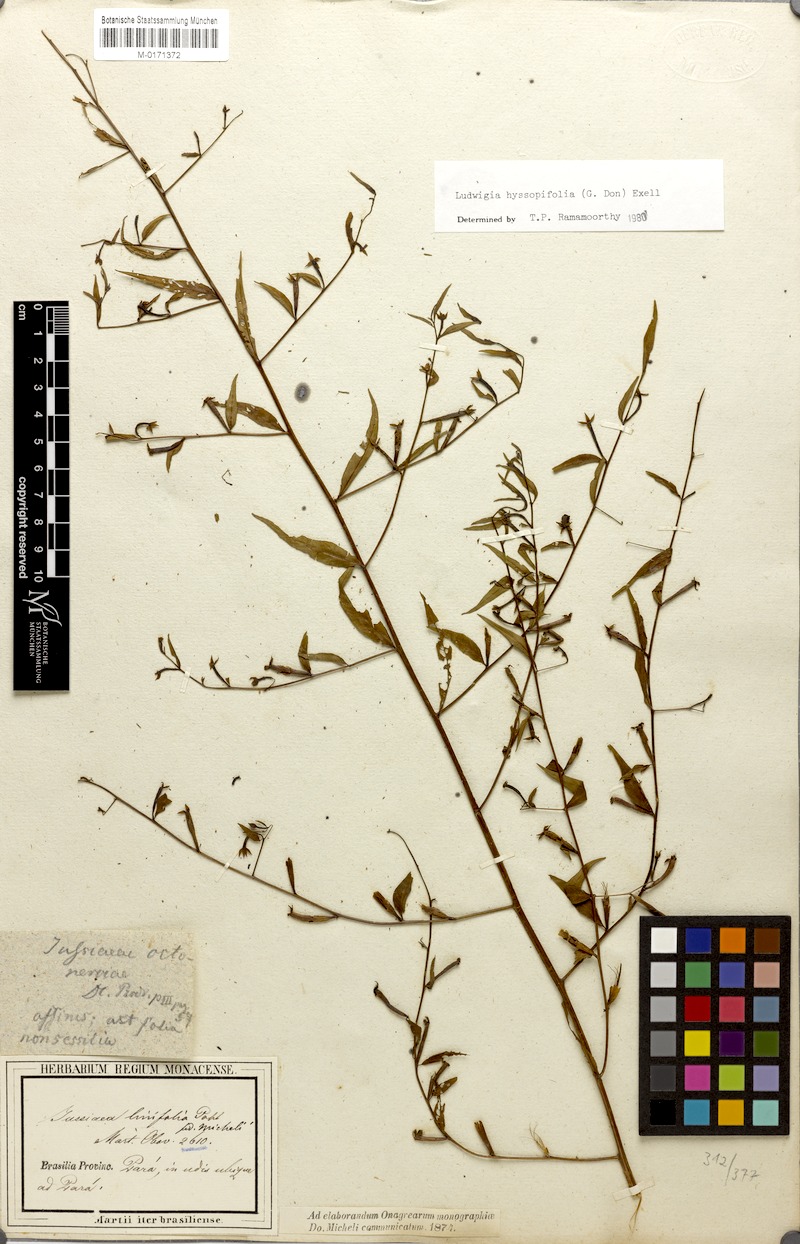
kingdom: Plantae
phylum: Tracheophyta
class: Magnoliopsida
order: Myrtales
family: Onagraceae
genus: Ludwigia
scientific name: Ludwigia hyssopifolia
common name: Linear leaf water primrose
